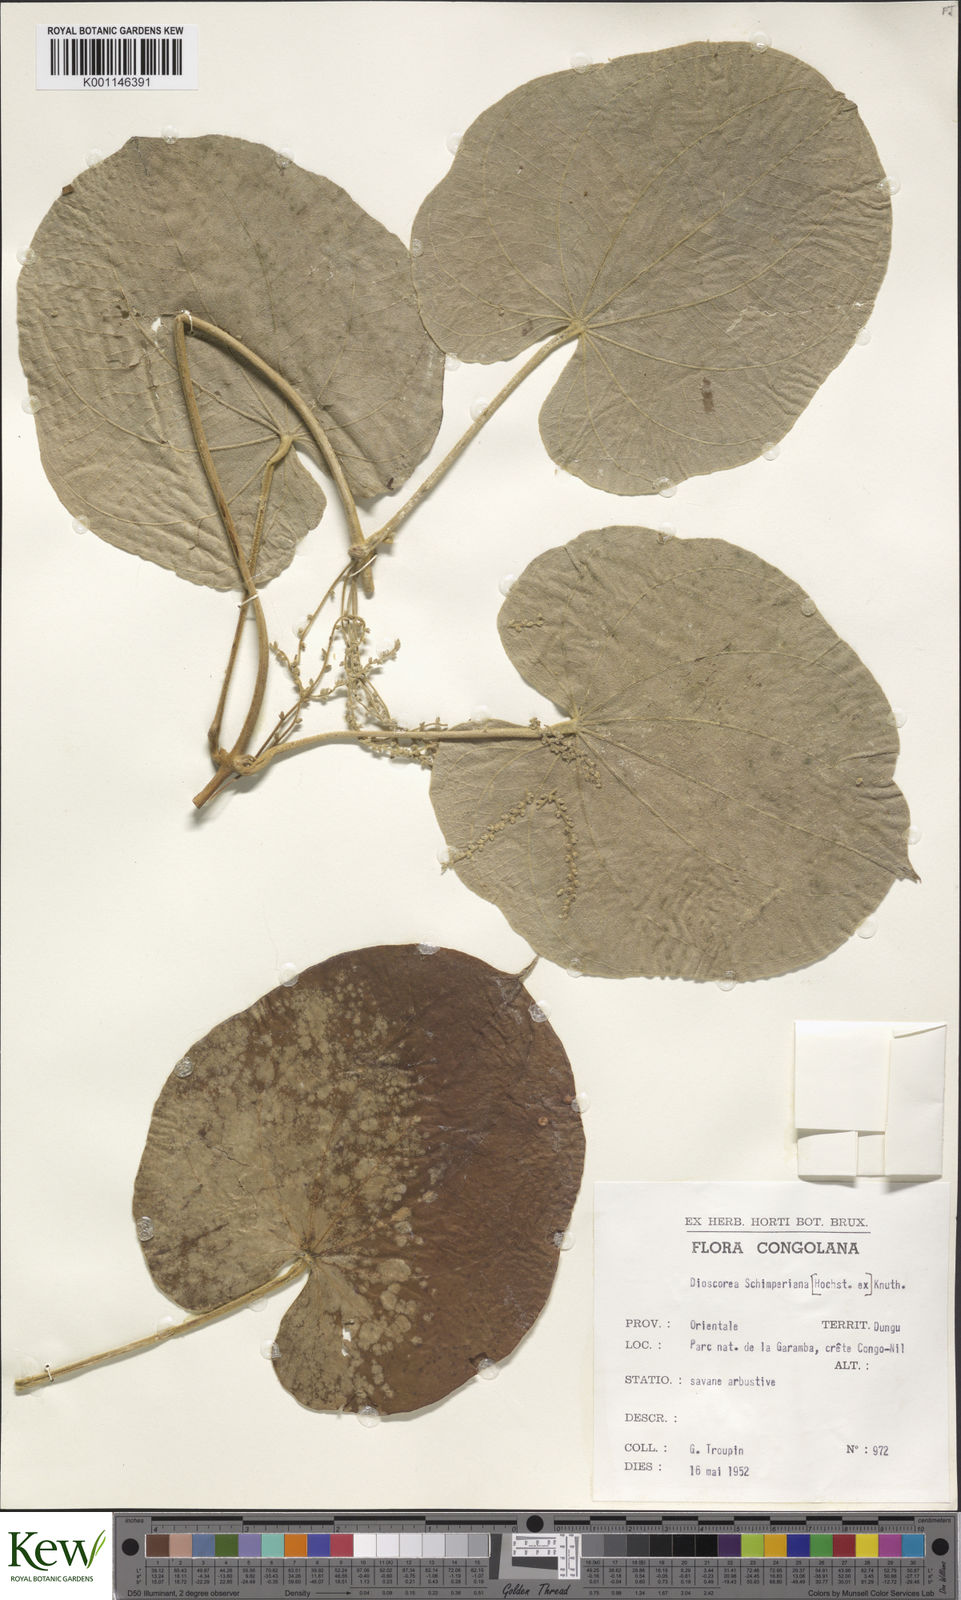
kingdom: Plantae
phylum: Tracheophyta
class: Liliopsida
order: Dioscoreales
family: Dioscoreaceae
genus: Dioscorea
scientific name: Dioscorea schimperiana
